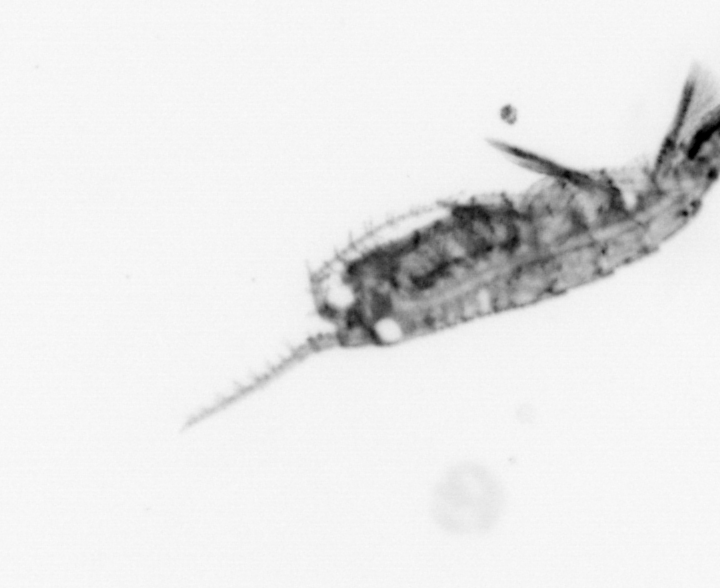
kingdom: Animalia
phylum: Arthropoda
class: Copepoda
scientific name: Copepoda
